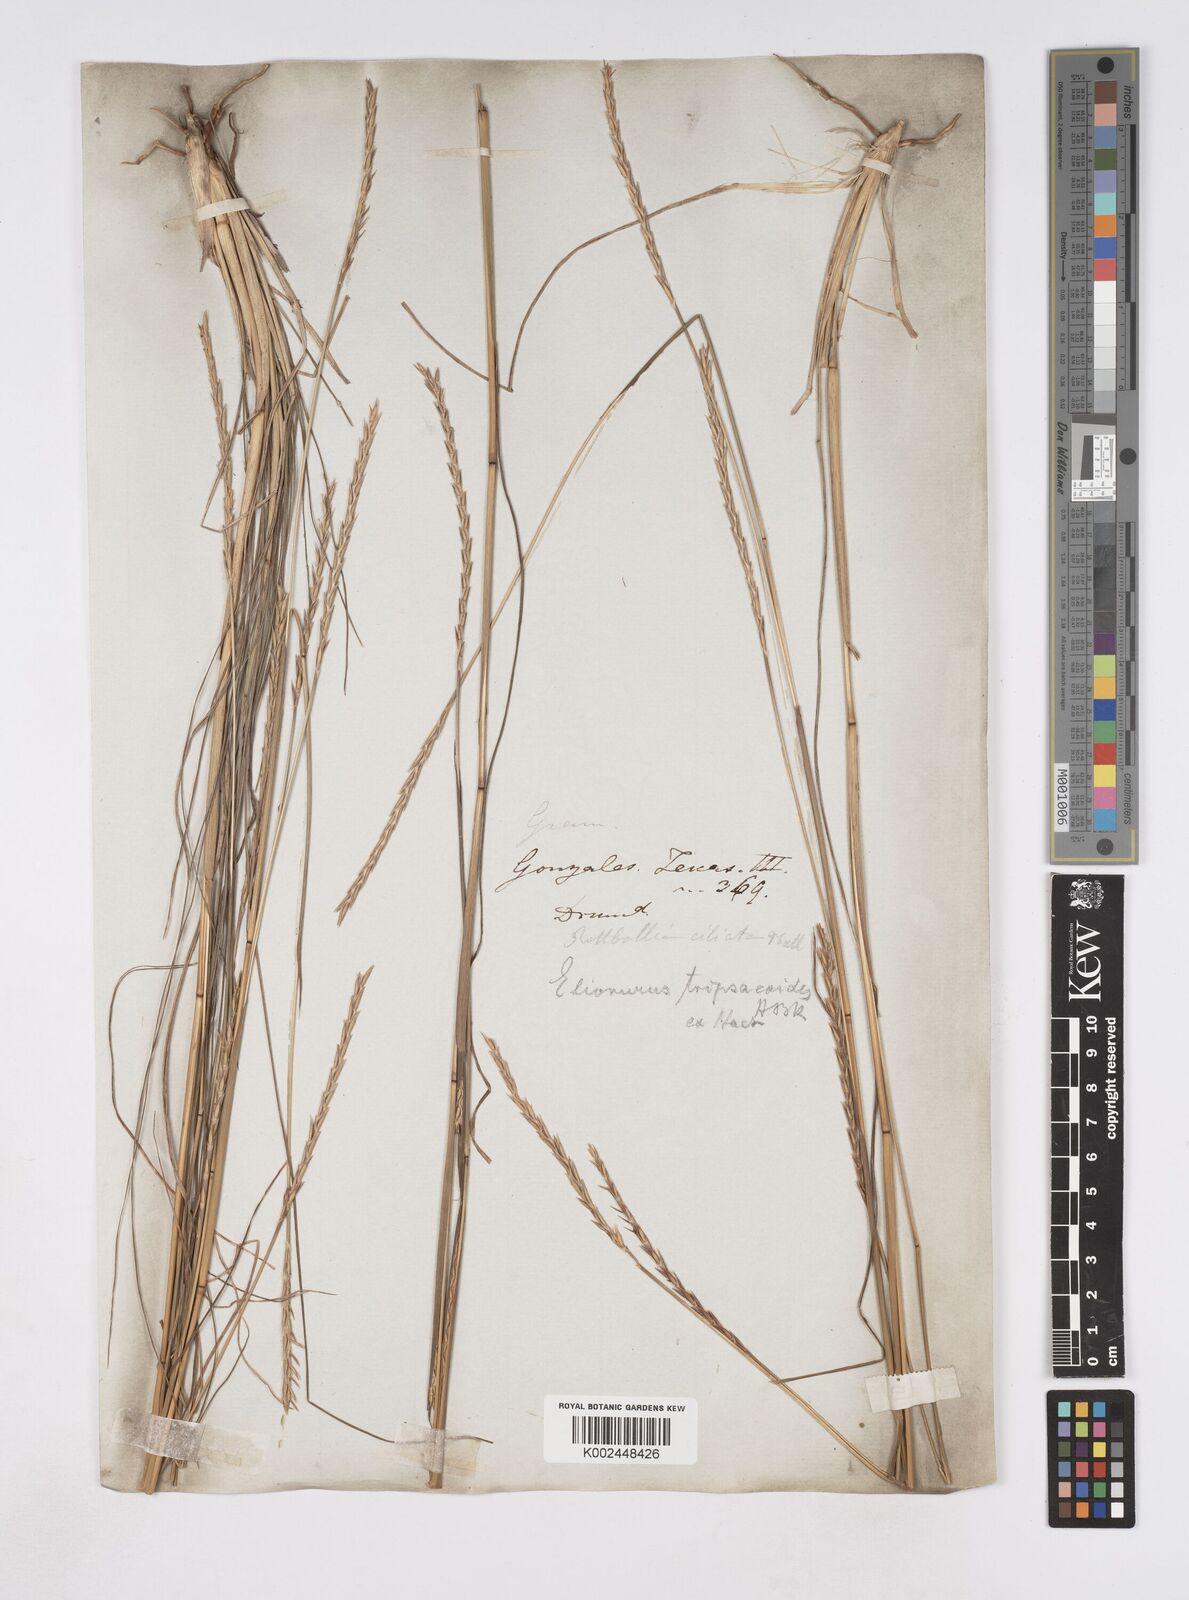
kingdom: Plantae
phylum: Tracheophyta
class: Liliopsida
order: Poales
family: Poaceae
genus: Elionurus
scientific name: Elionurus tripsacoides
